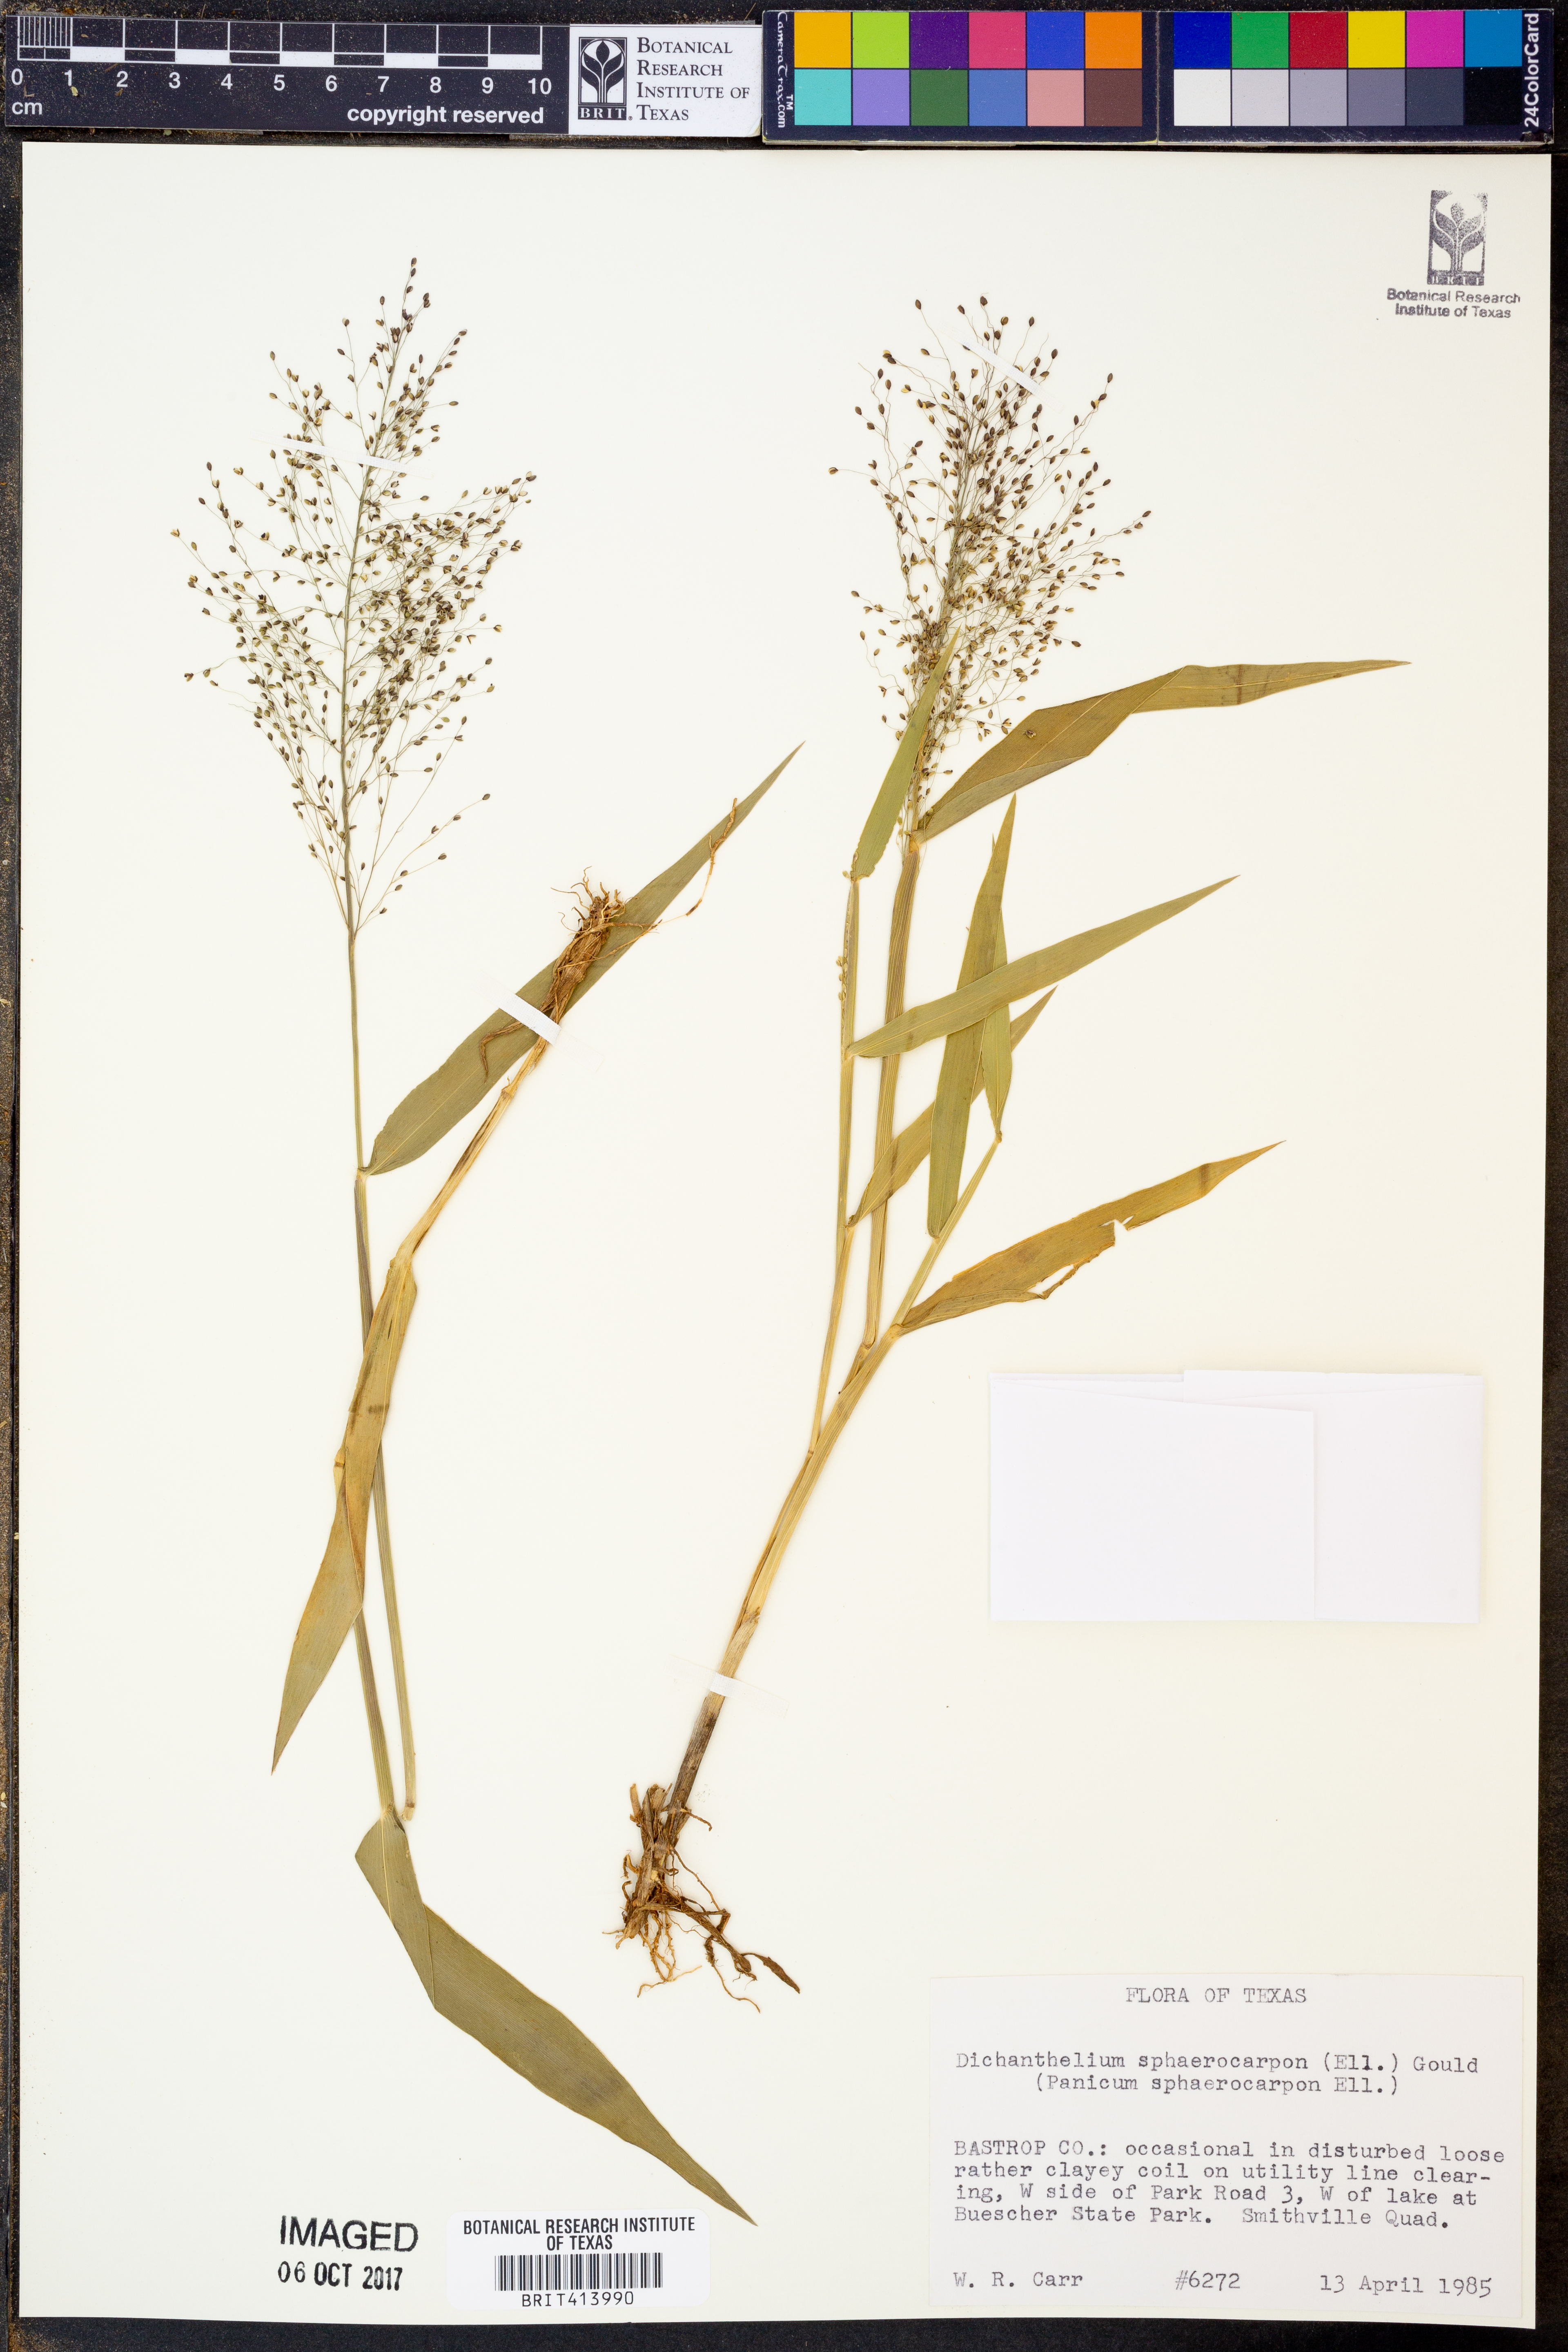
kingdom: Plantae
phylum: Tracheophyta
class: Liliopsida
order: Poales
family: Poaceae
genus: Dichanthelium
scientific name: Dichanthelium sphaerocarpon
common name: Round-fruited panicgrass
